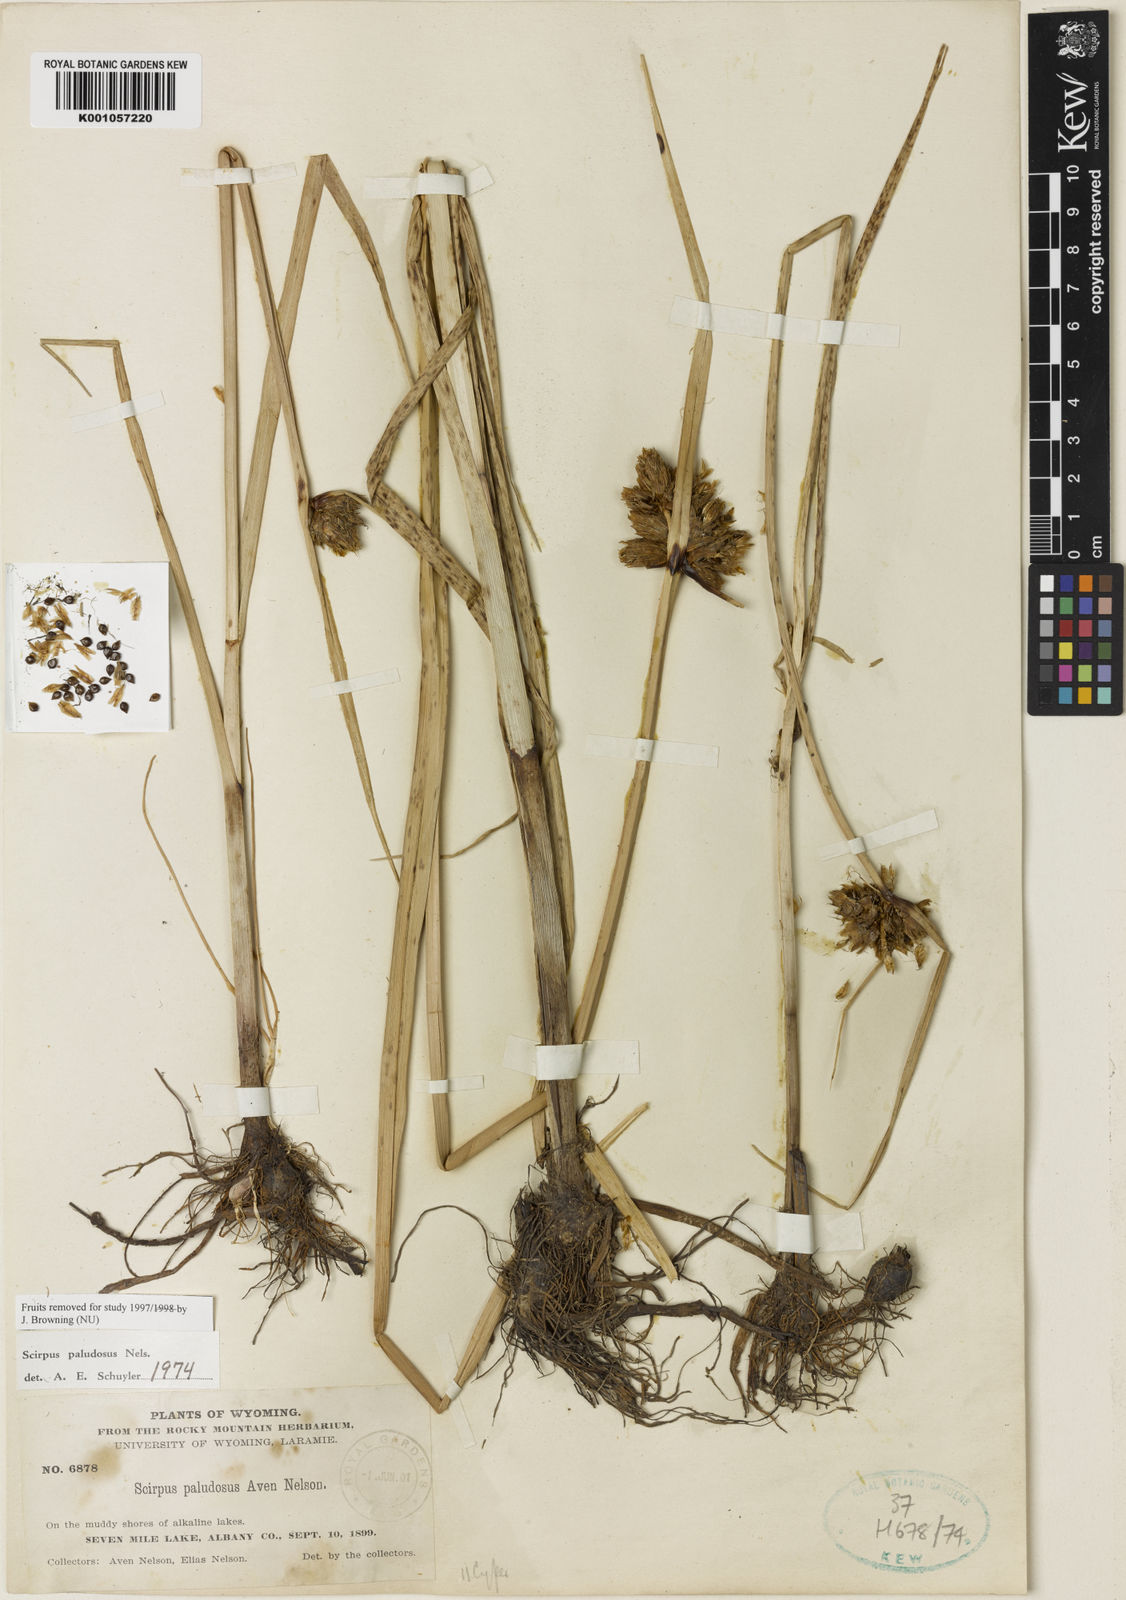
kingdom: Plantae
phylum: Tracheophyta
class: Liliopsida
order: Poales
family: Cyperaceae
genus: Bolboschoenus
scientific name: Bolboschoenus
